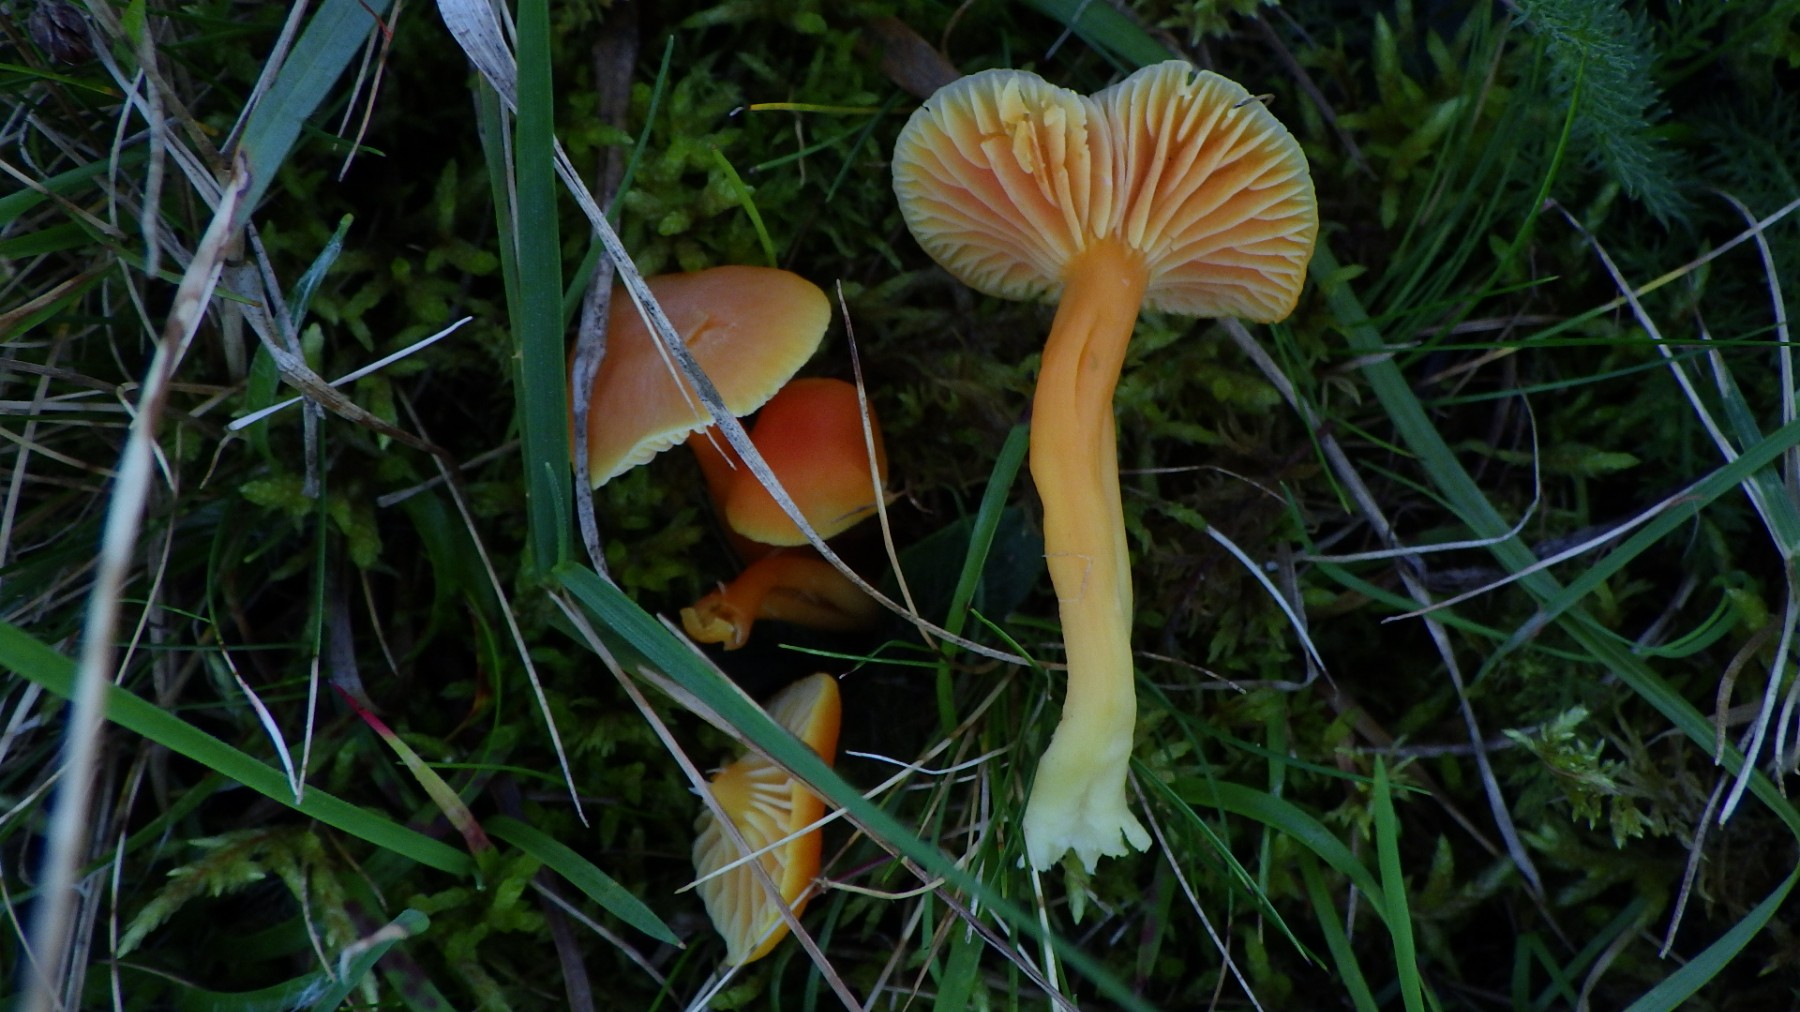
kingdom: Fungi
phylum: Basidiomycota
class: Agaricomycetes
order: Agaricales
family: Hygrophoraceae
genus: Hygrocybe
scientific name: Hygrocybe reidii
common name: honning-vokshat
